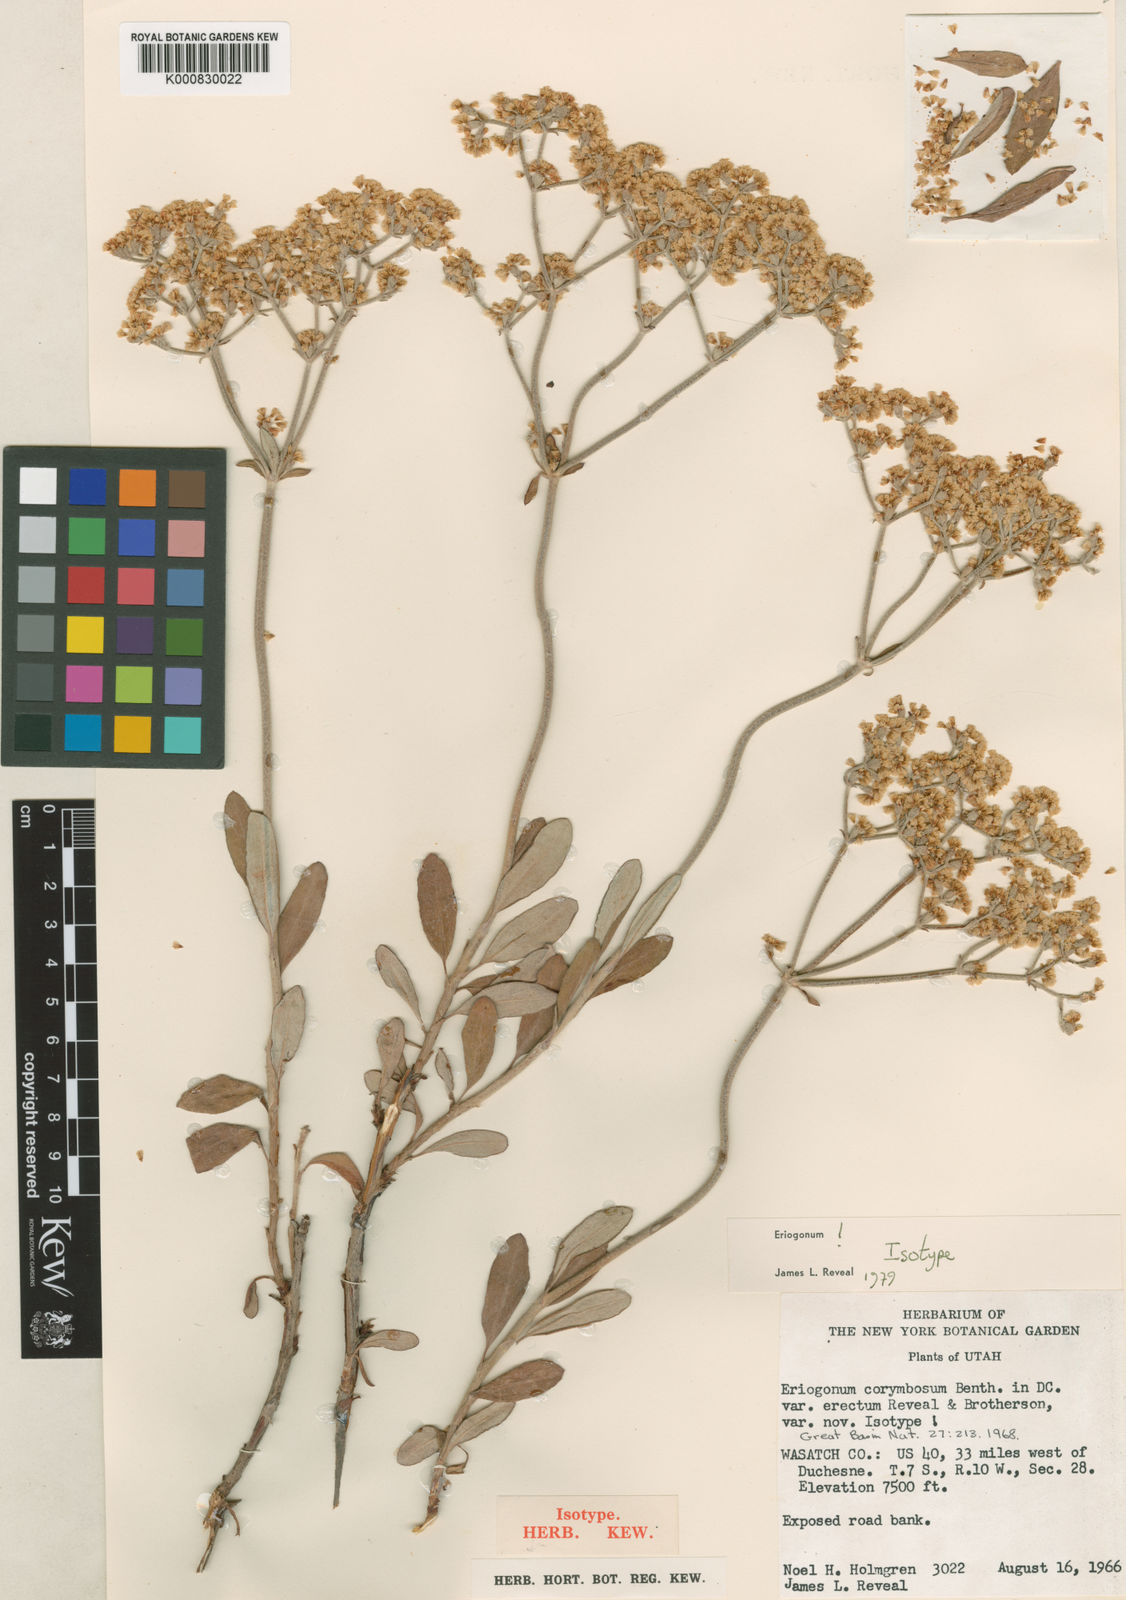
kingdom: Plantae
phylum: Tracheophyta
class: Magnoliopsida
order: Caryophyllales
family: Polygonaceae
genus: Eriogonum
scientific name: Eriogonum corymbosum
